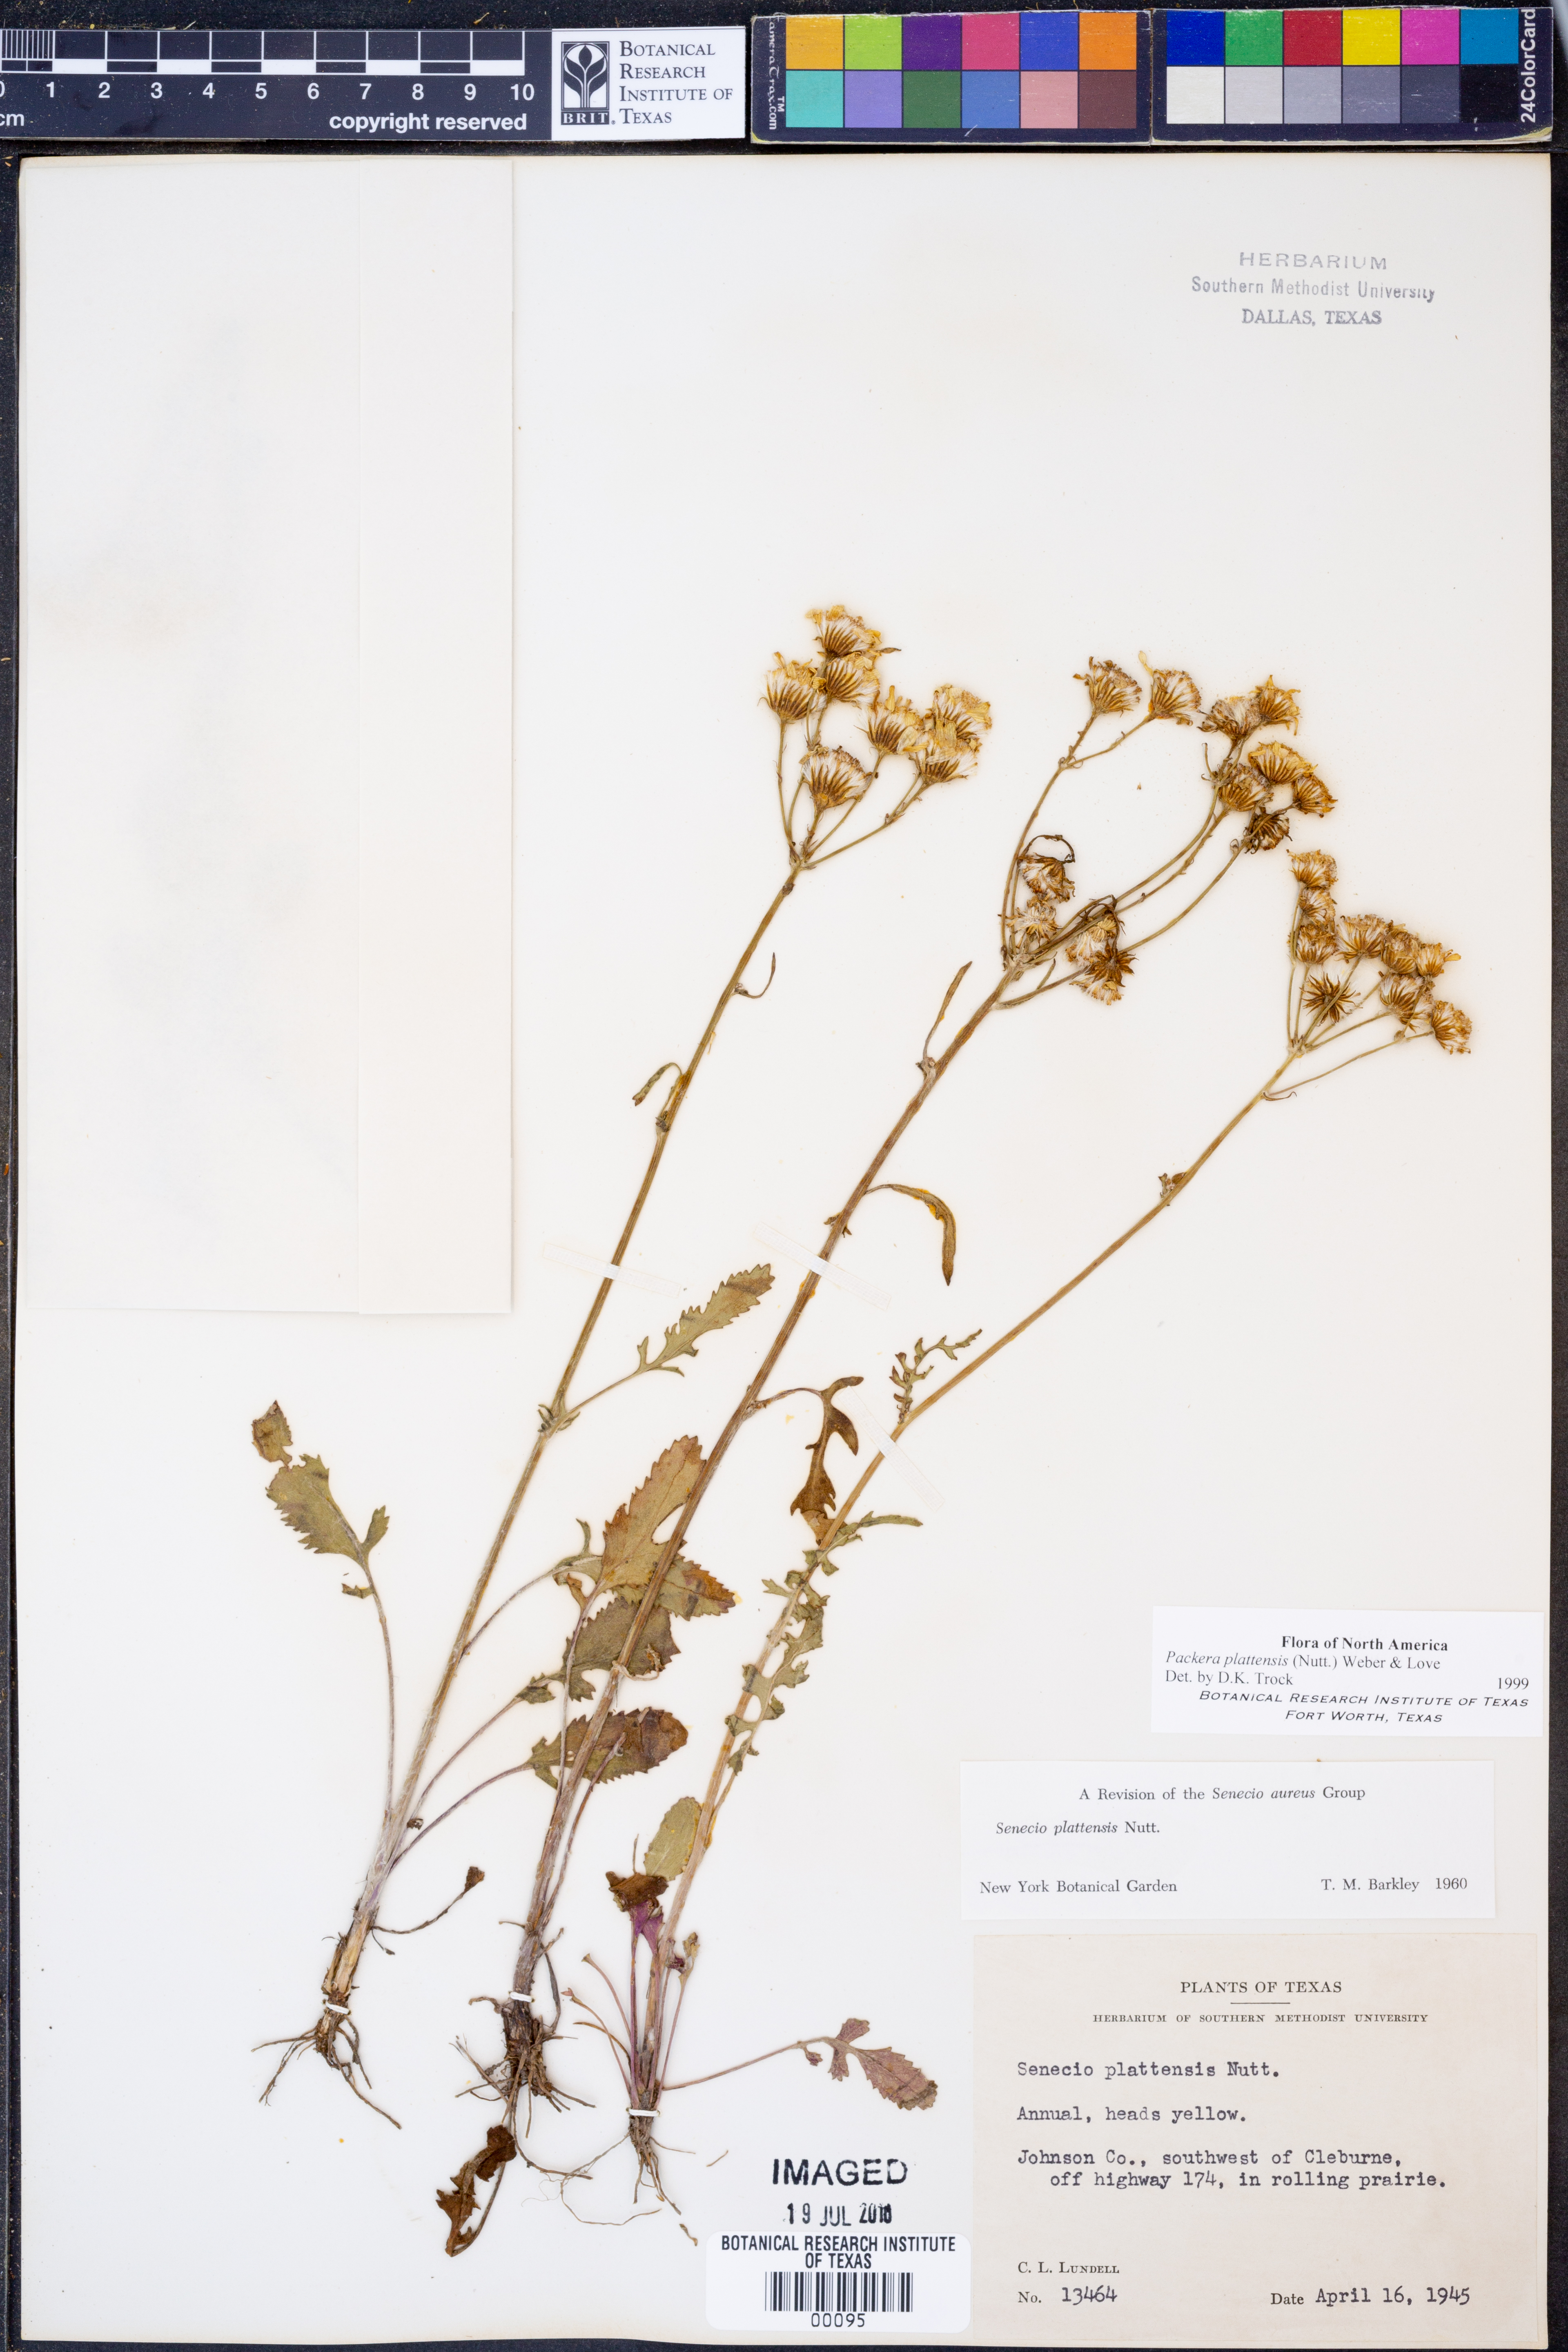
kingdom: Plantae
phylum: Tracheophyta
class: Magnoliopsida
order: Asterales
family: Asteraceae
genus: Packera
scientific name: Packera plattensis
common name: Prairie groundsel
